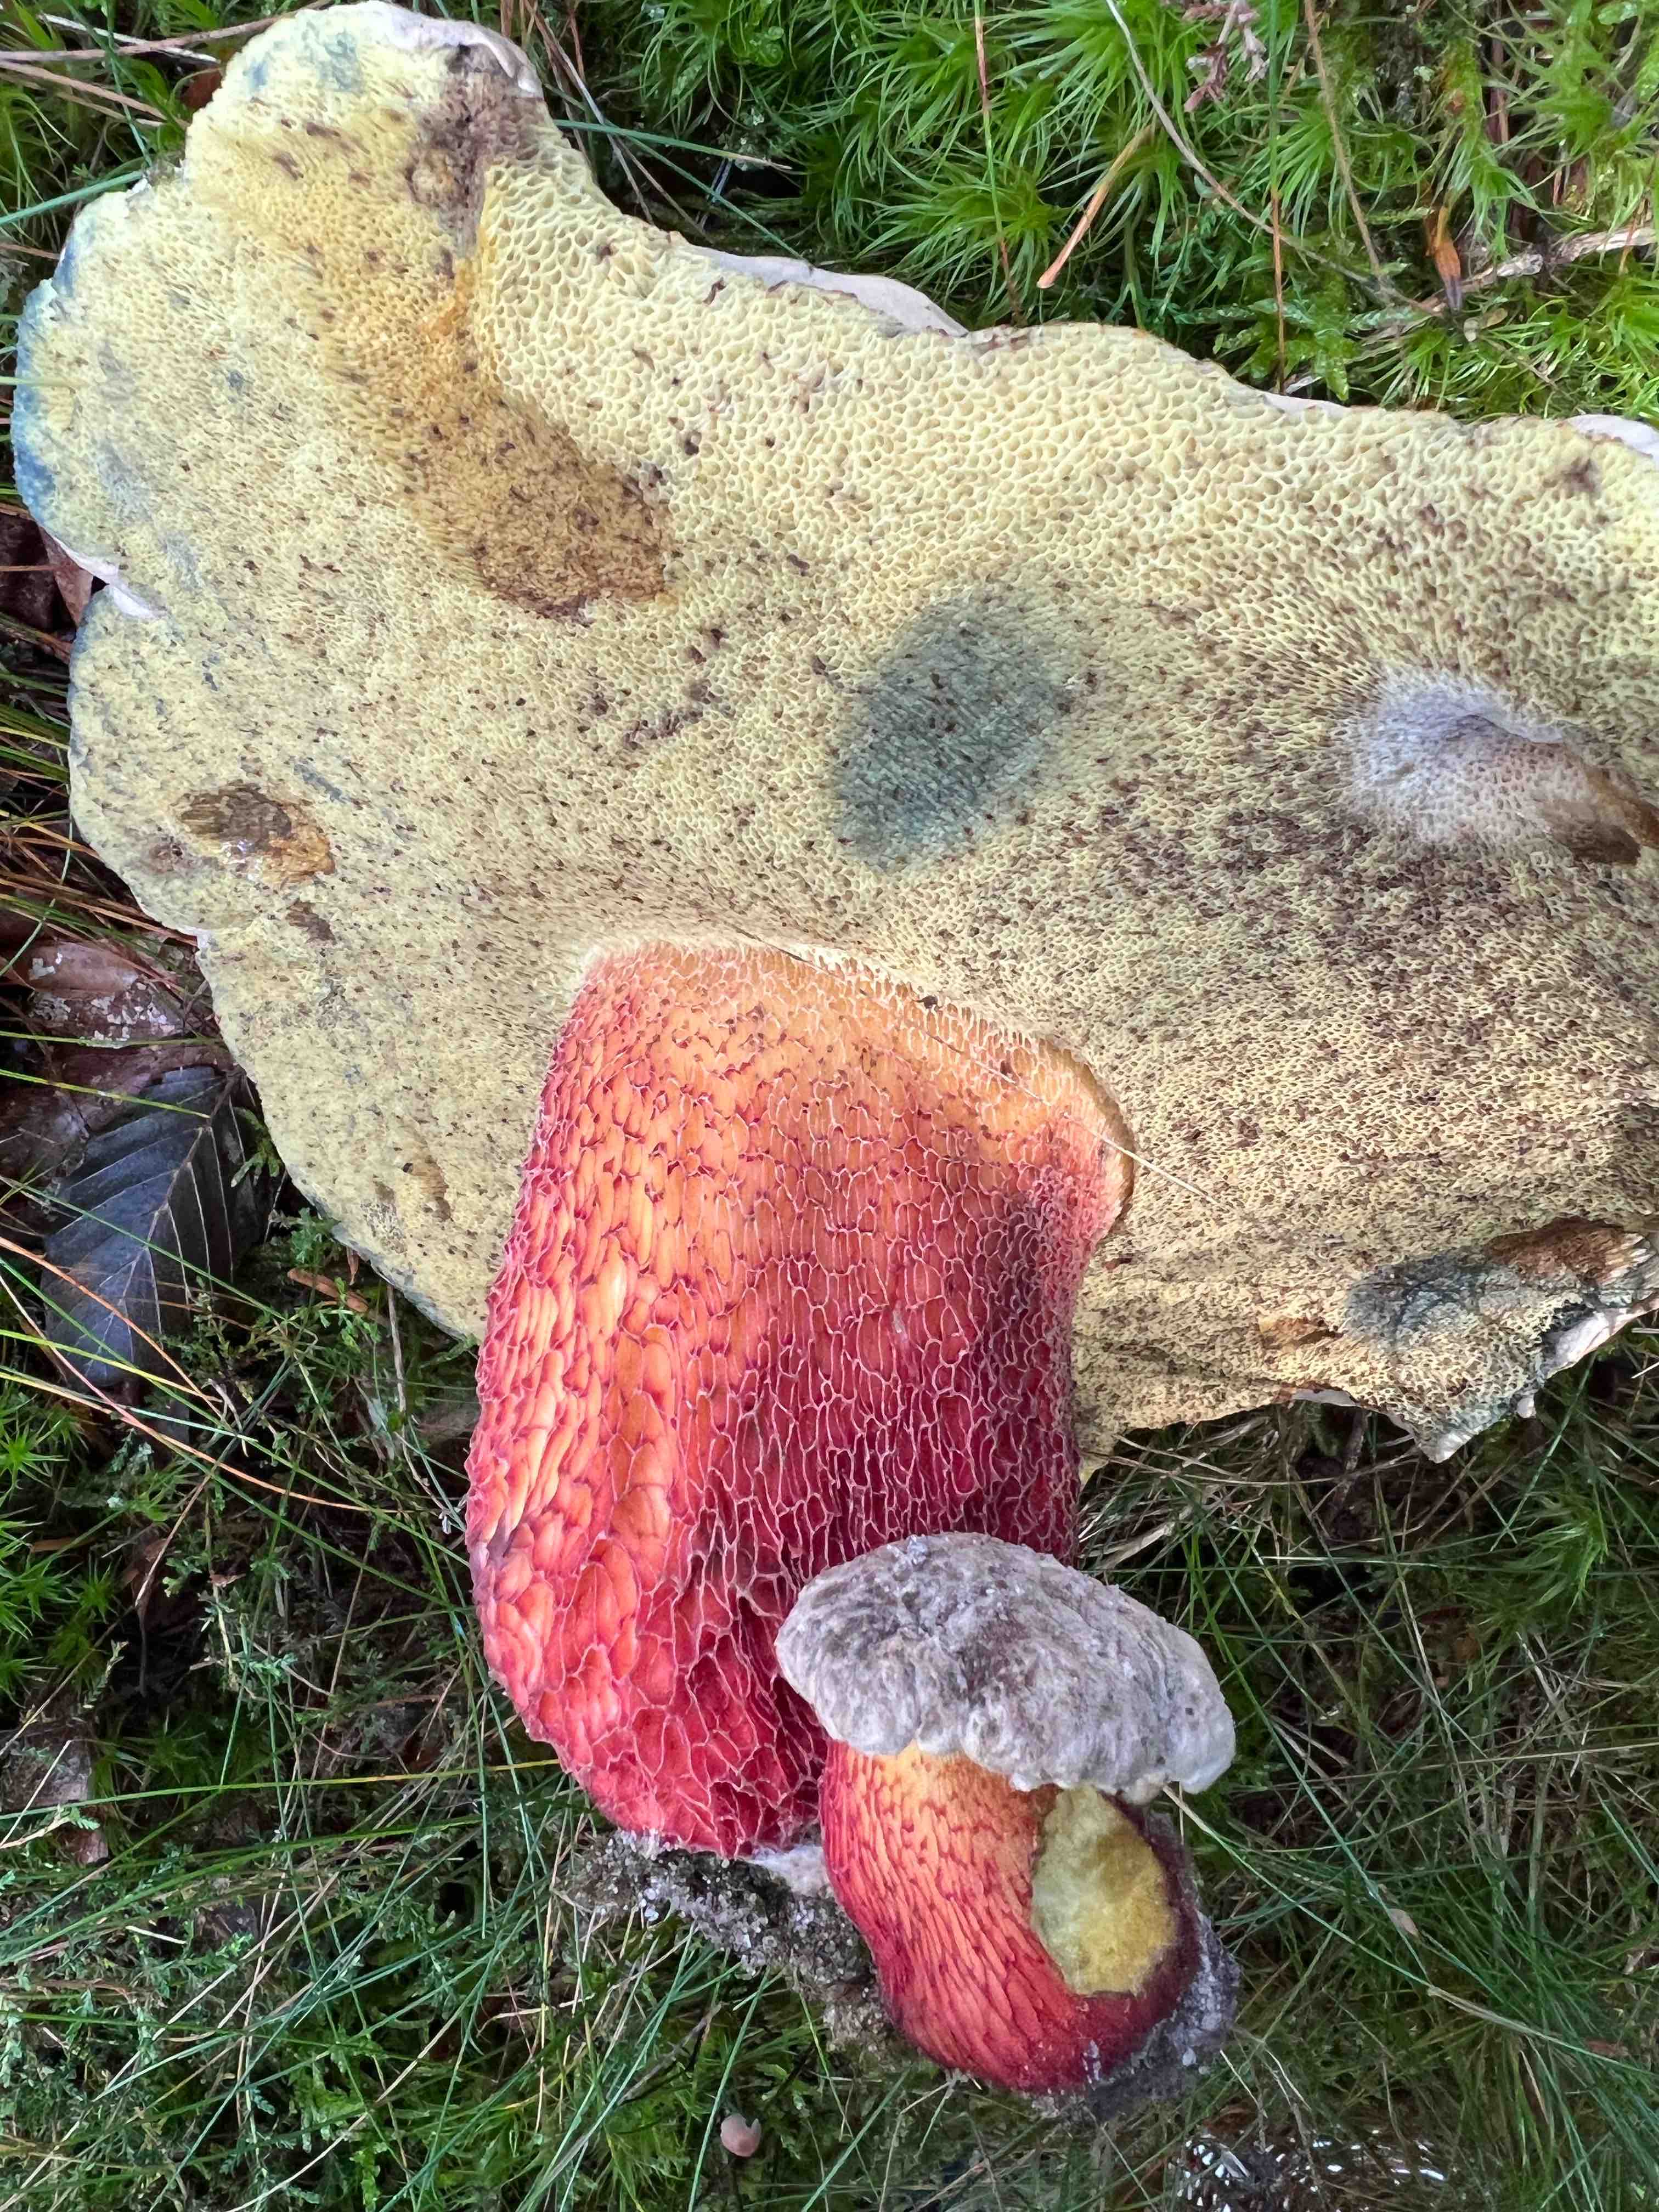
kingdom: Fungi
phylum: Basidiomycota
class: Agaricomycetes
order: Boletales
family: Boletaceae
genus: Caloboletus
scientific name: Caloboletus calopus
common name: skønfodet rørhat
